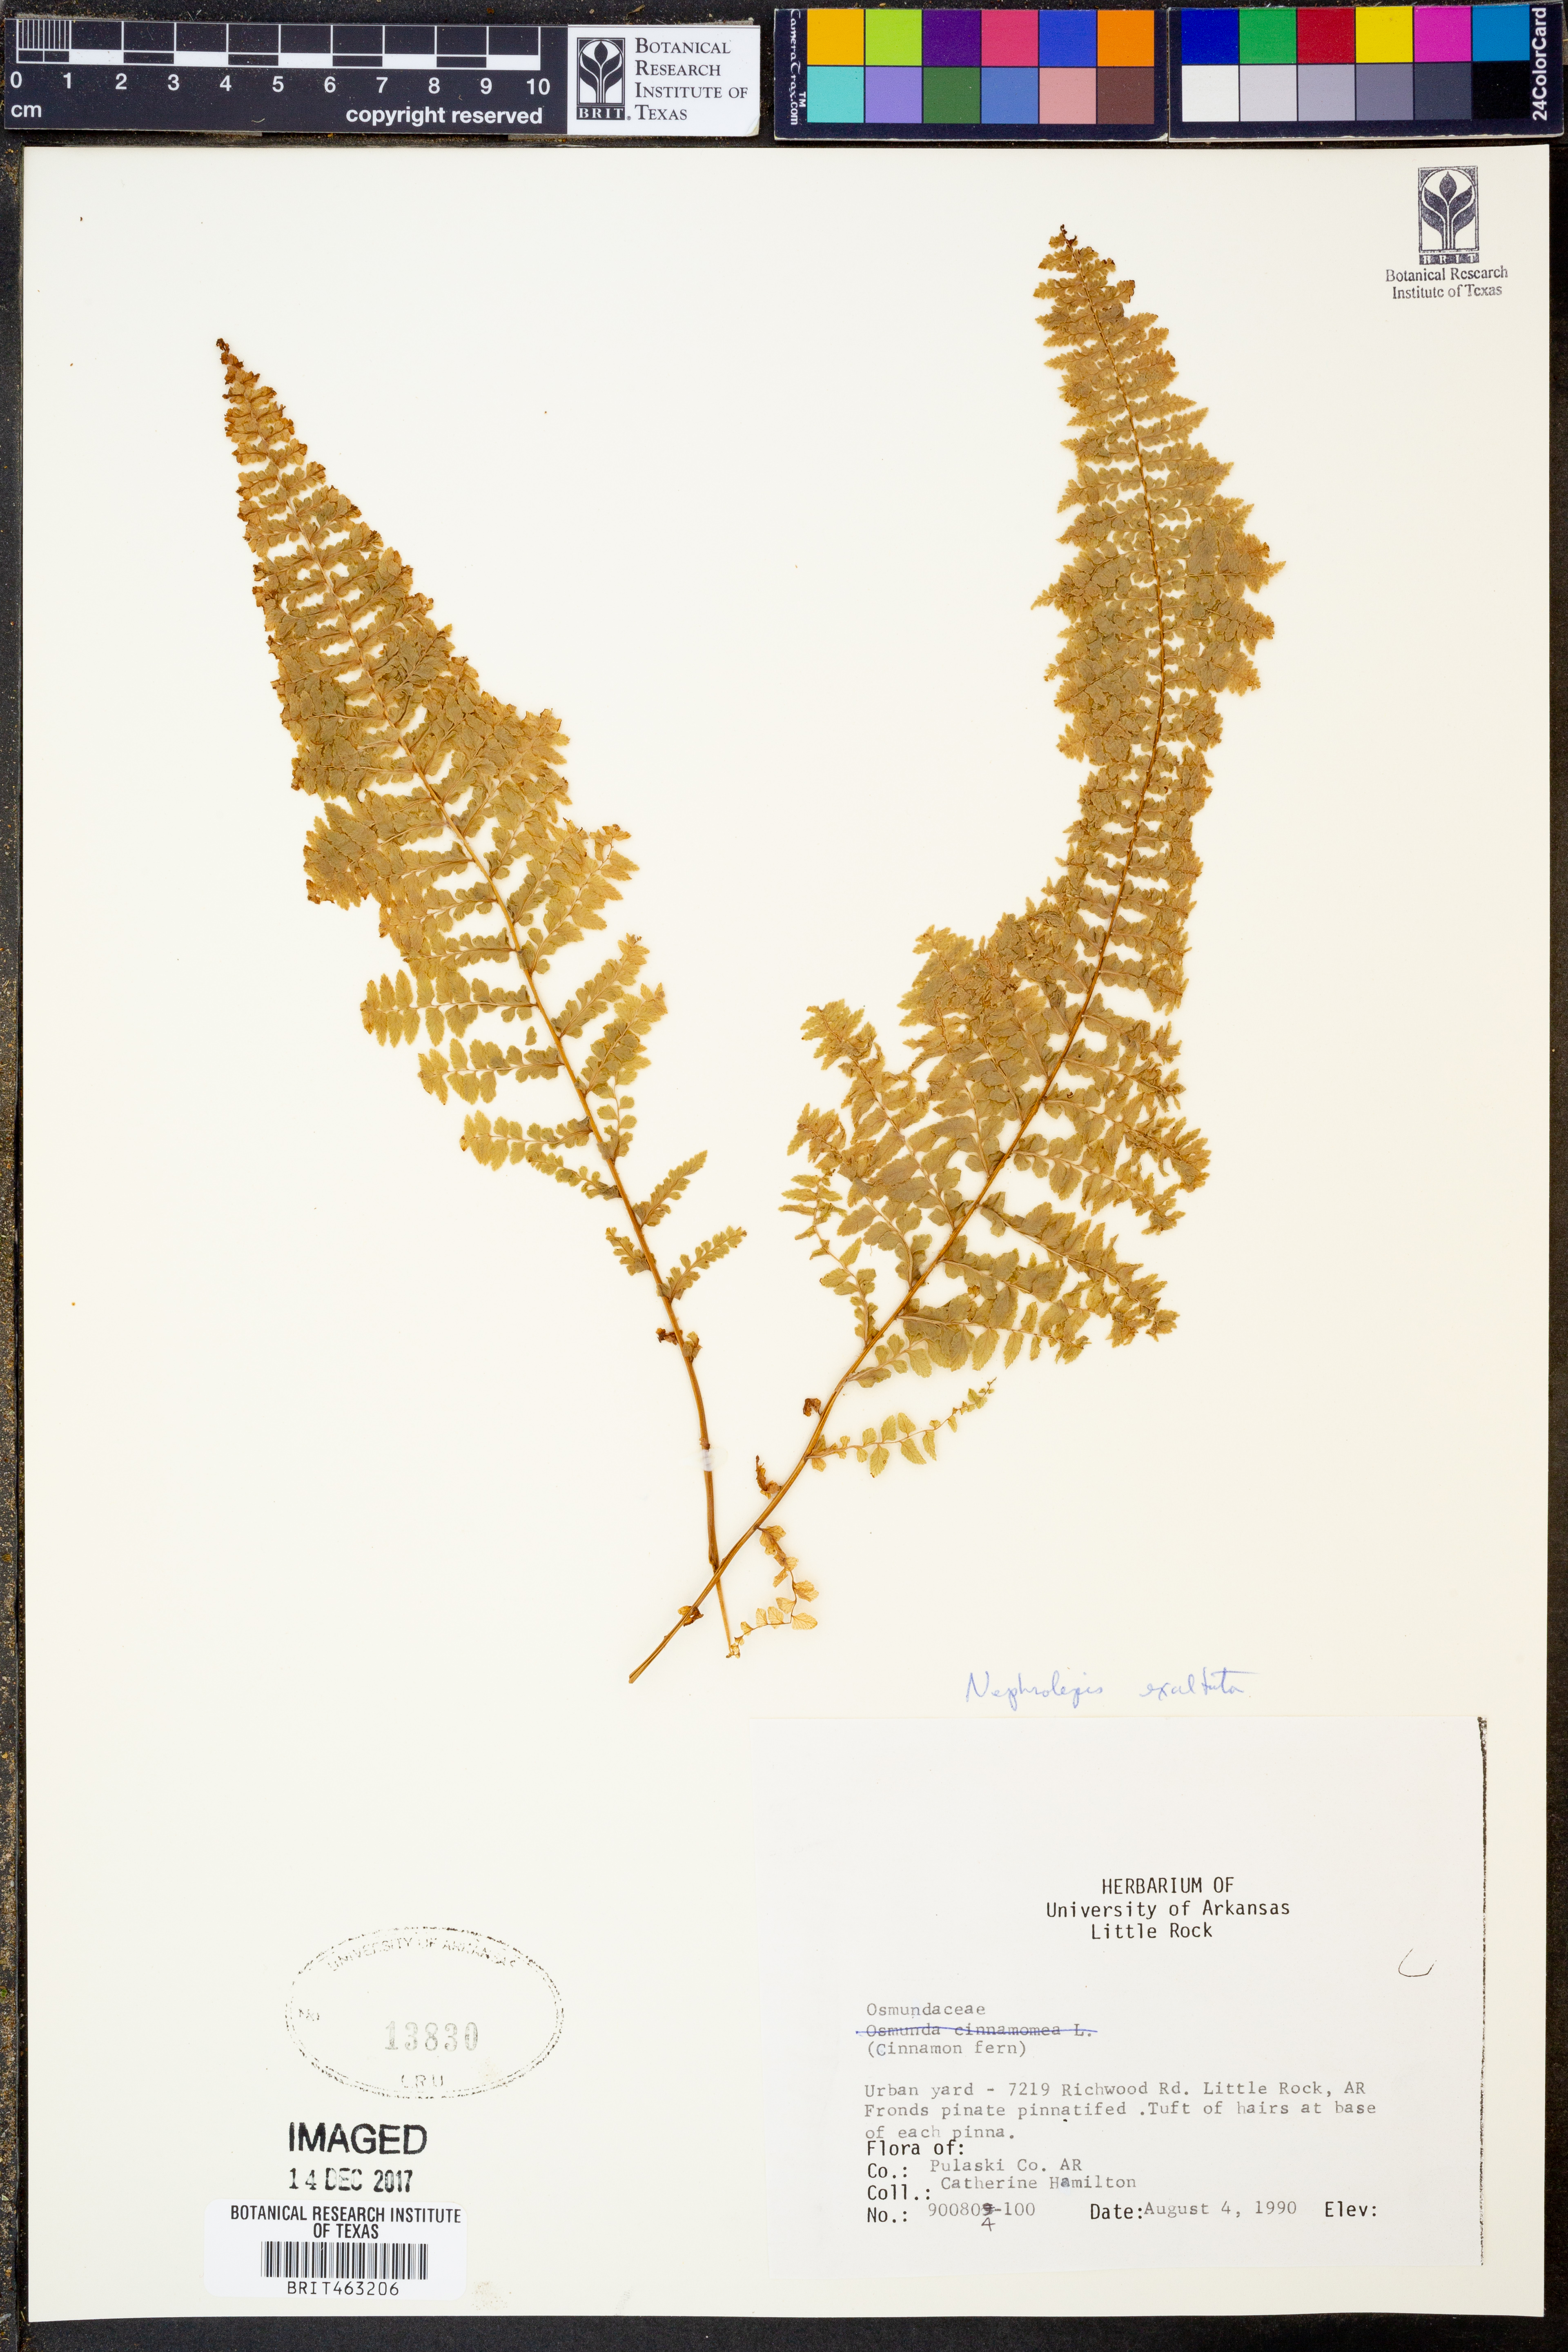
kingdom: Plantae
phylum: Tracheophyta
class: Polypodiopsida
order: Polypodiales
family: Nephrolepidaceae
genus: Nephrolepis
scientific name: Nephrolepis exaltata
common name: Sword fern
